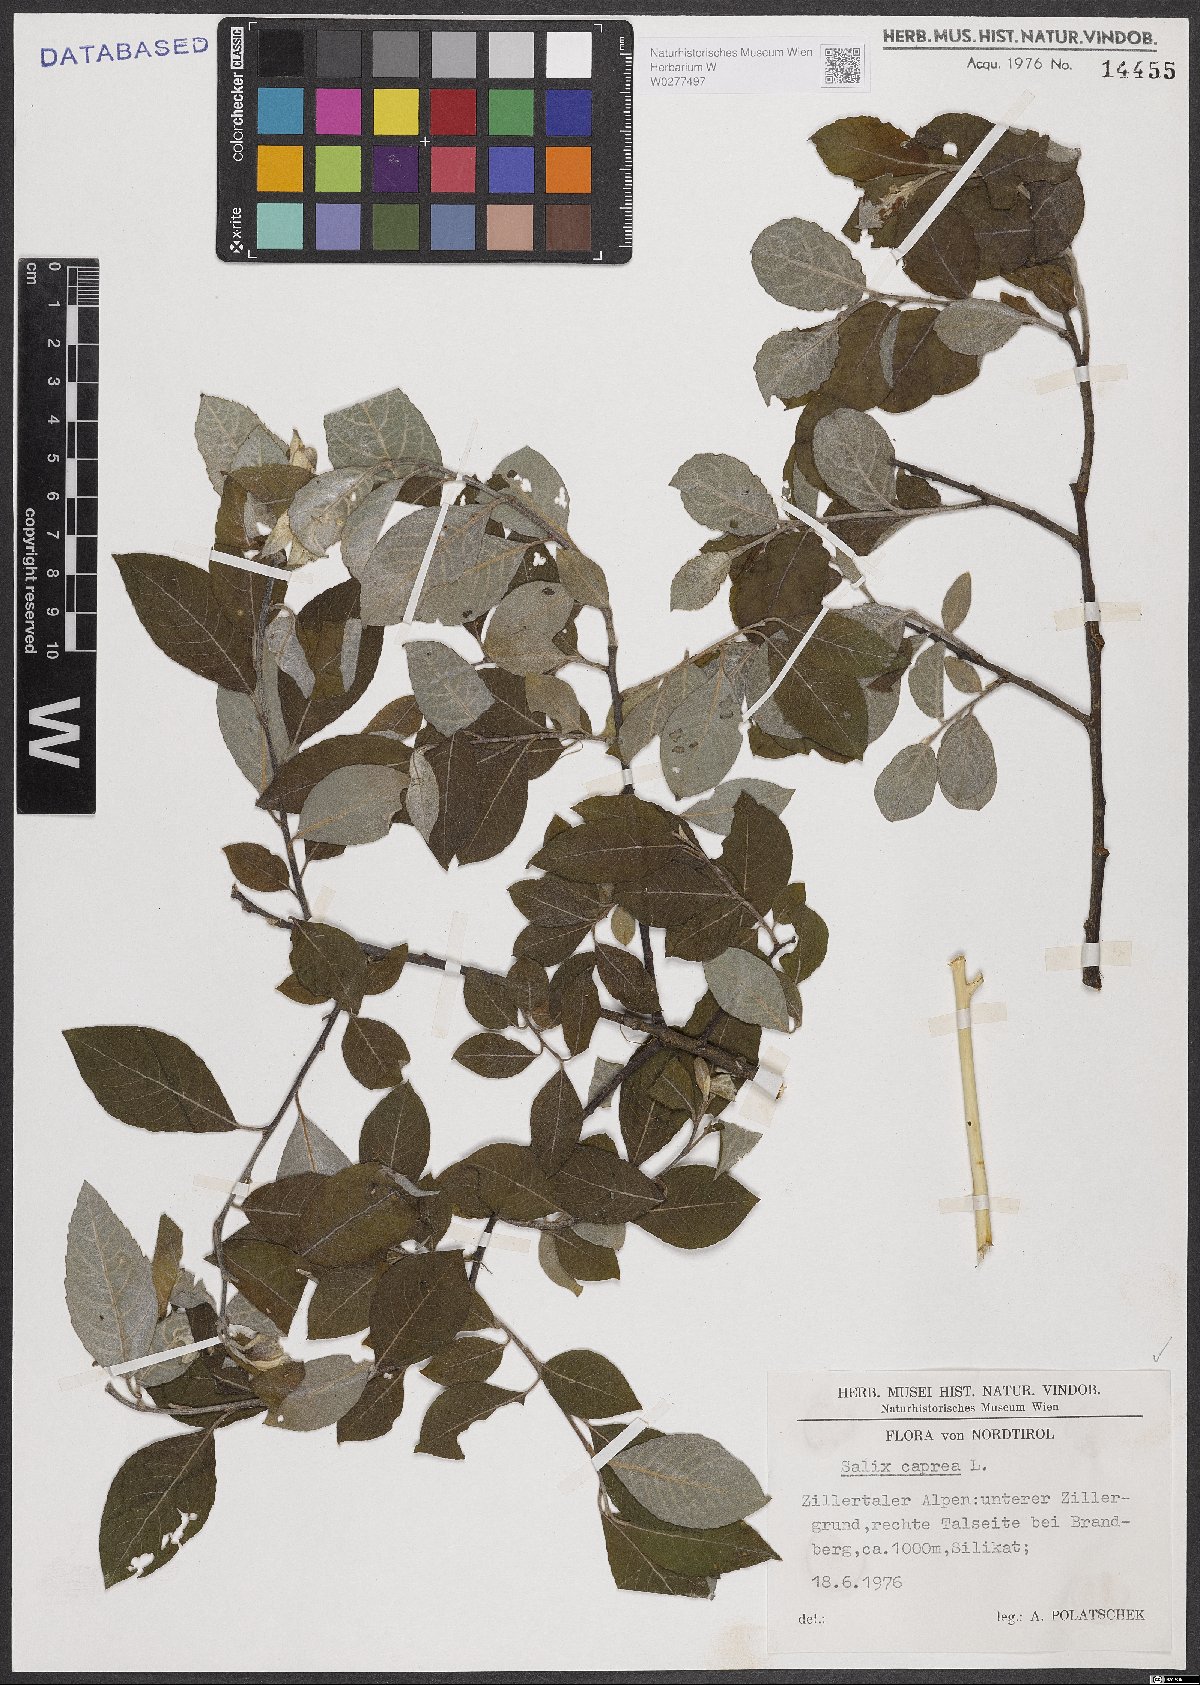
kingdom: Plantae
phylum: Tracheophyta
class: Magnoliopsida
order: Malpighiales
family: Salicaceae
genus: Salix
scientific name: Salix caprea
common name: Goat willow
